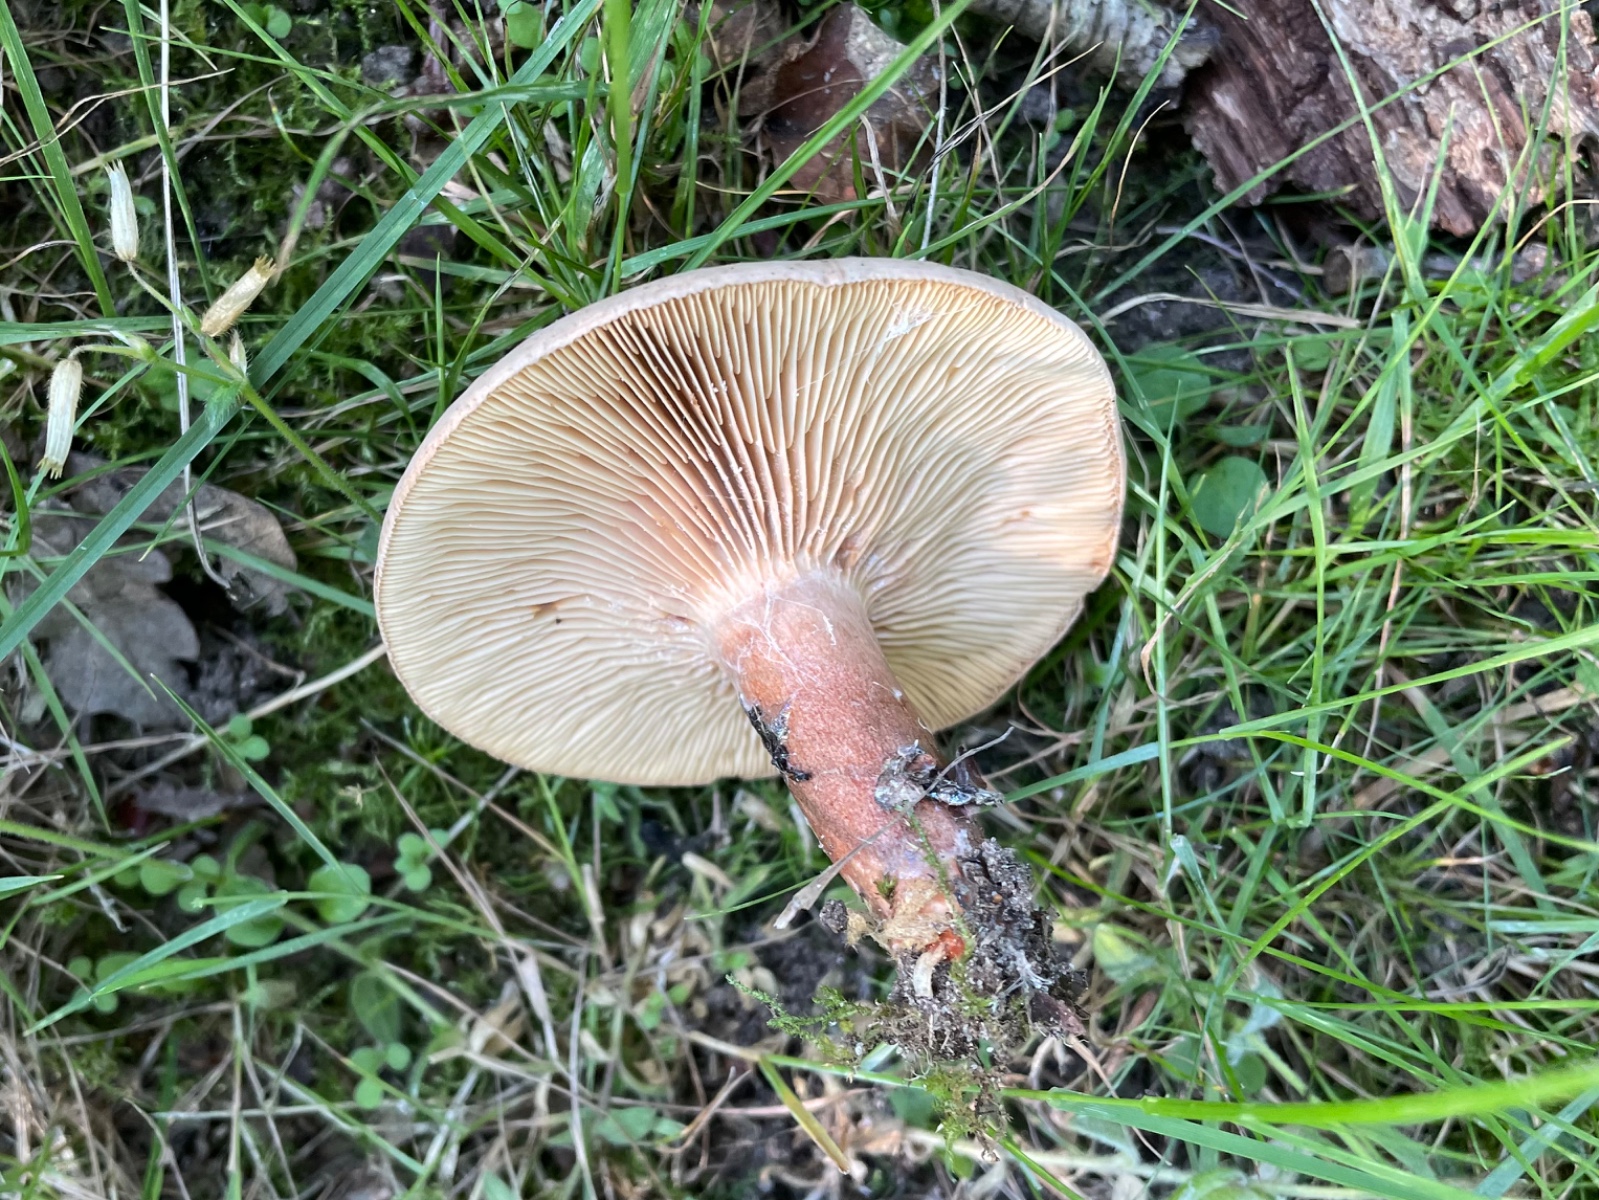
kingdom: Fungi
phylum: Basidiomycota
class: Agaricomycetes
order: Russulales
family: Russulaceae
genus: Lactarius
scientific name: Lactarius quietus
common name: ege-mælkehat
